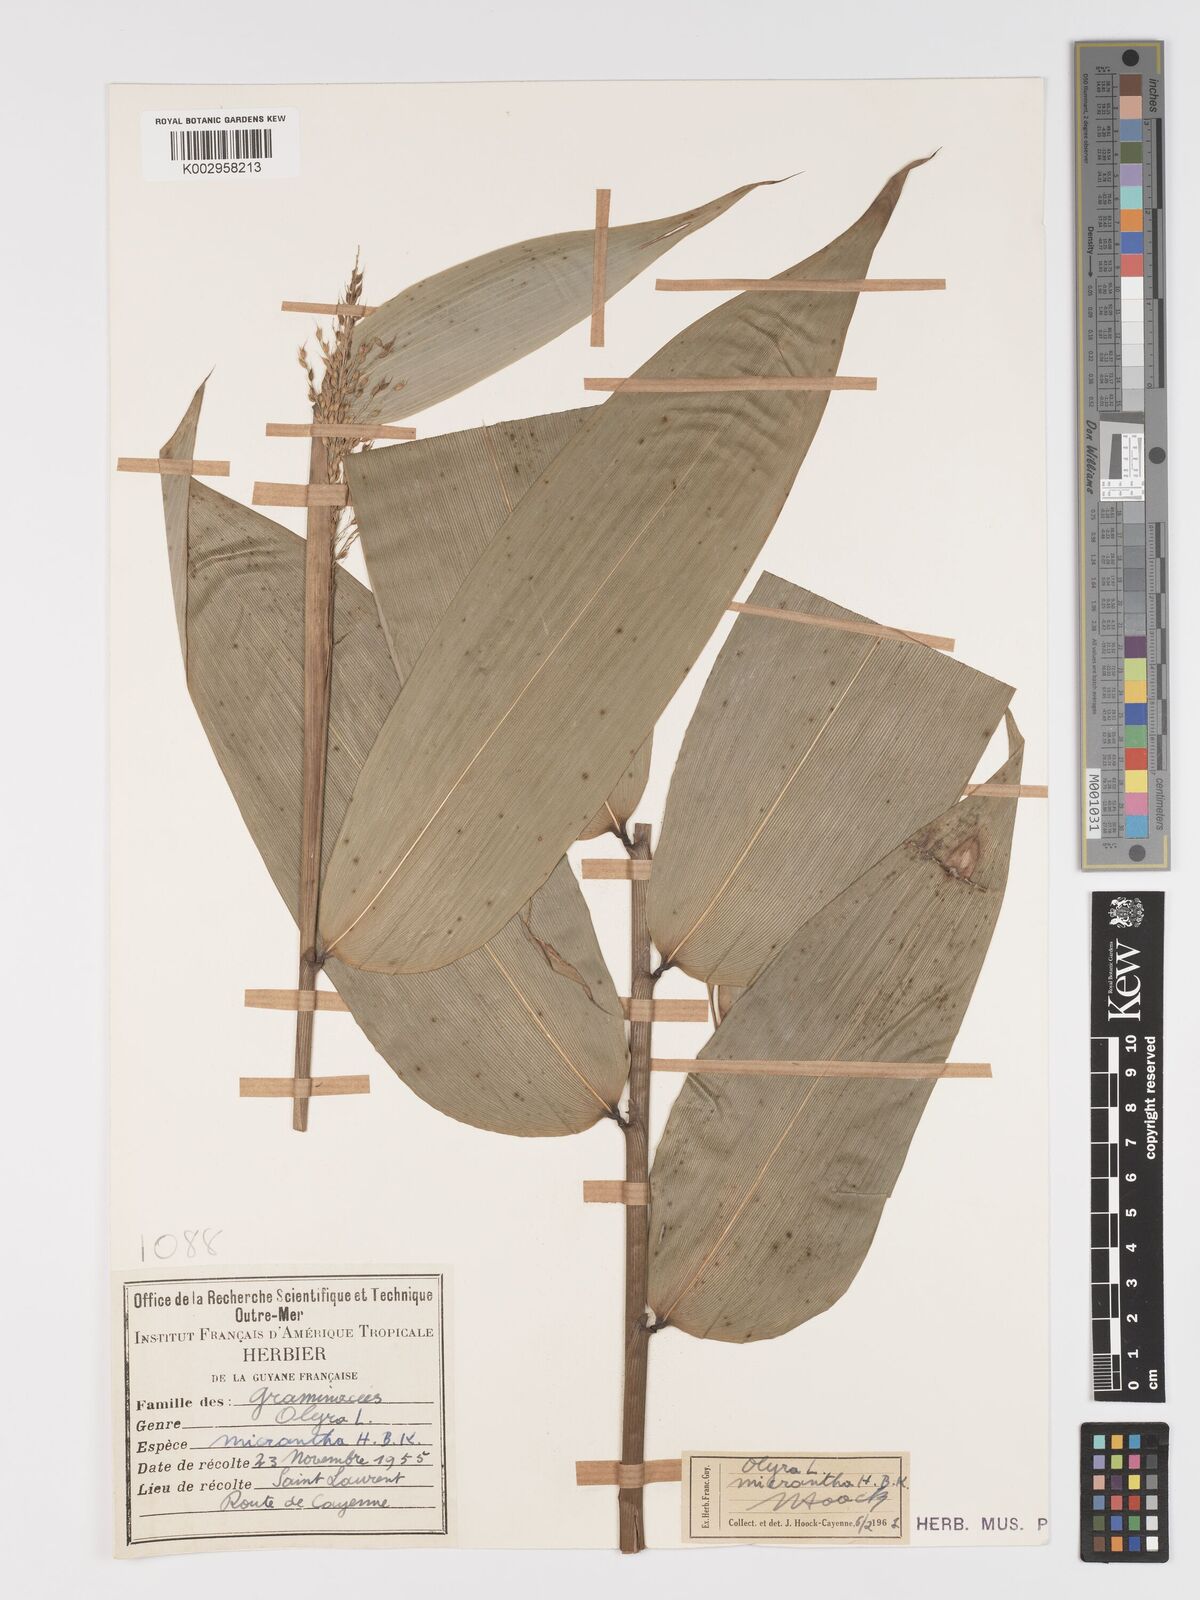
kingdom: Plantae
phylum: Tracheophyta
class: Liliopsida
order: Poales
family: Poaceae
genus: Taquara
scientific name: Taquara micrantha
